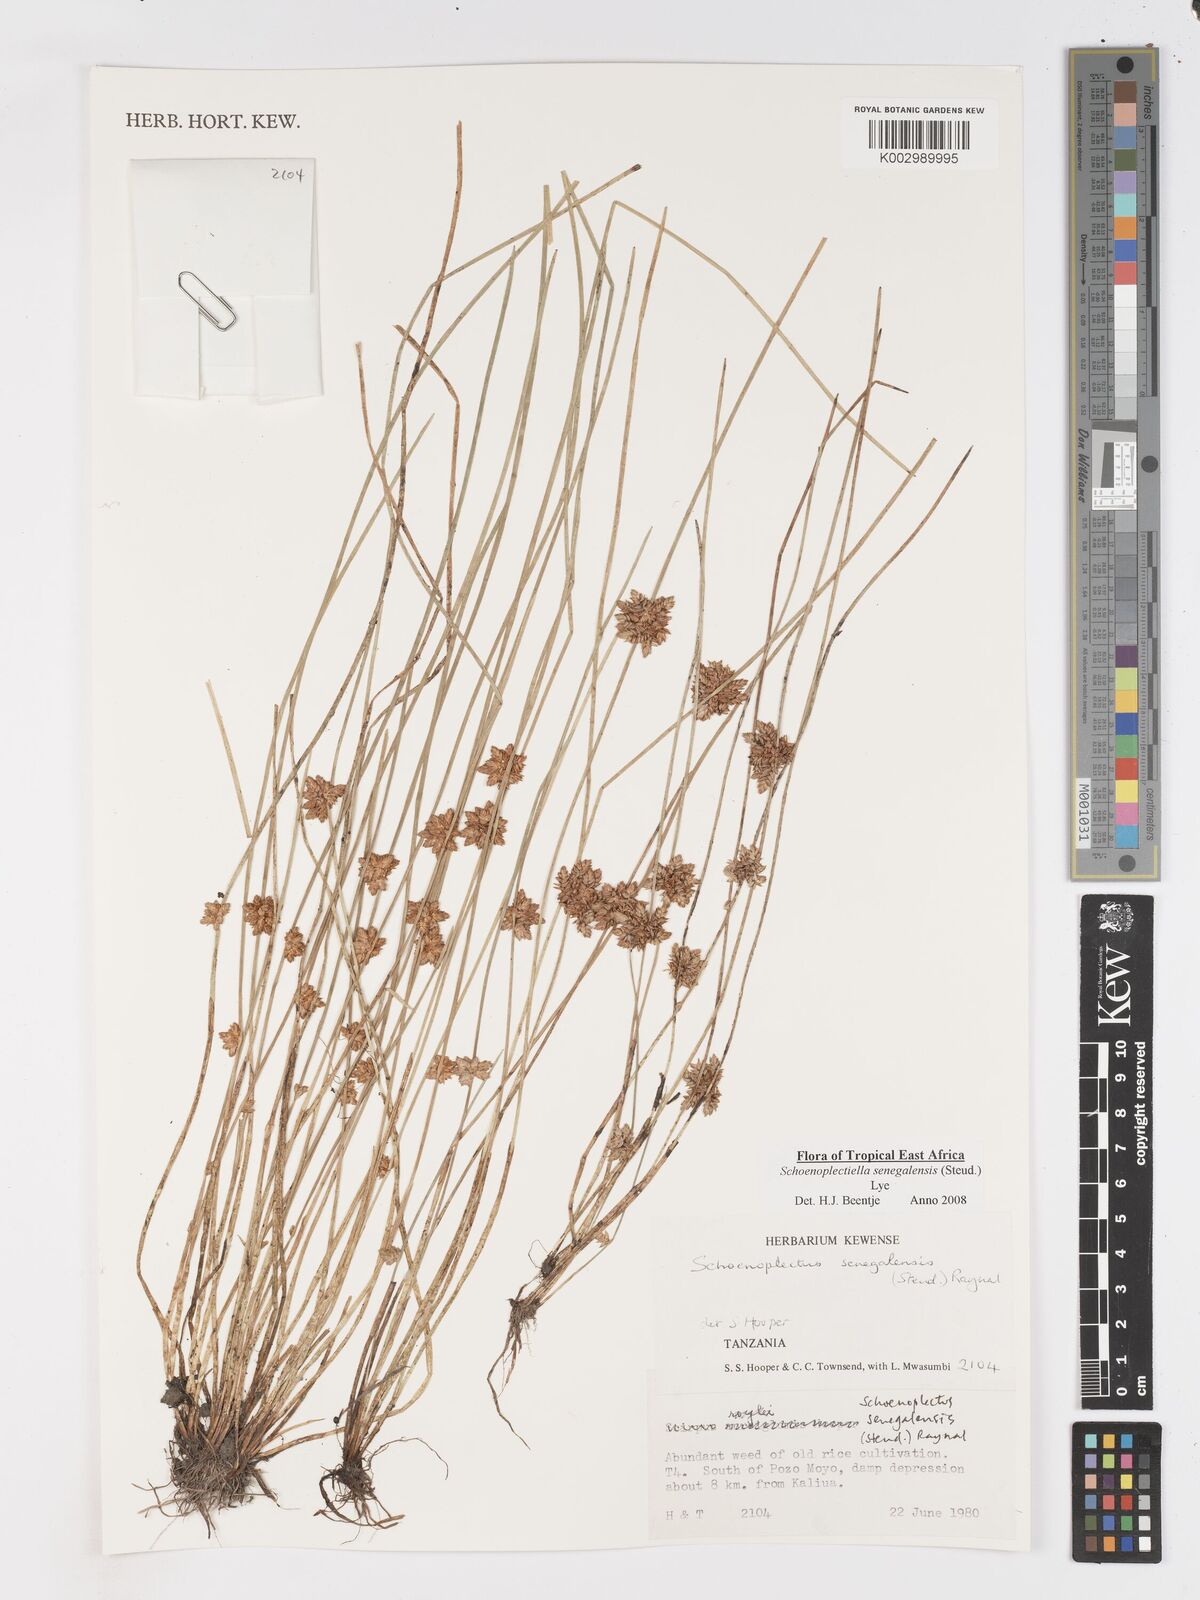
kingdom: Plantae
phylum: Tracheophyta
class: Liliopsida
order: Poales
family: Cyperaceae
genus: Schoenoplectiella
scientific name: Schoenoplectiella senegalensis
